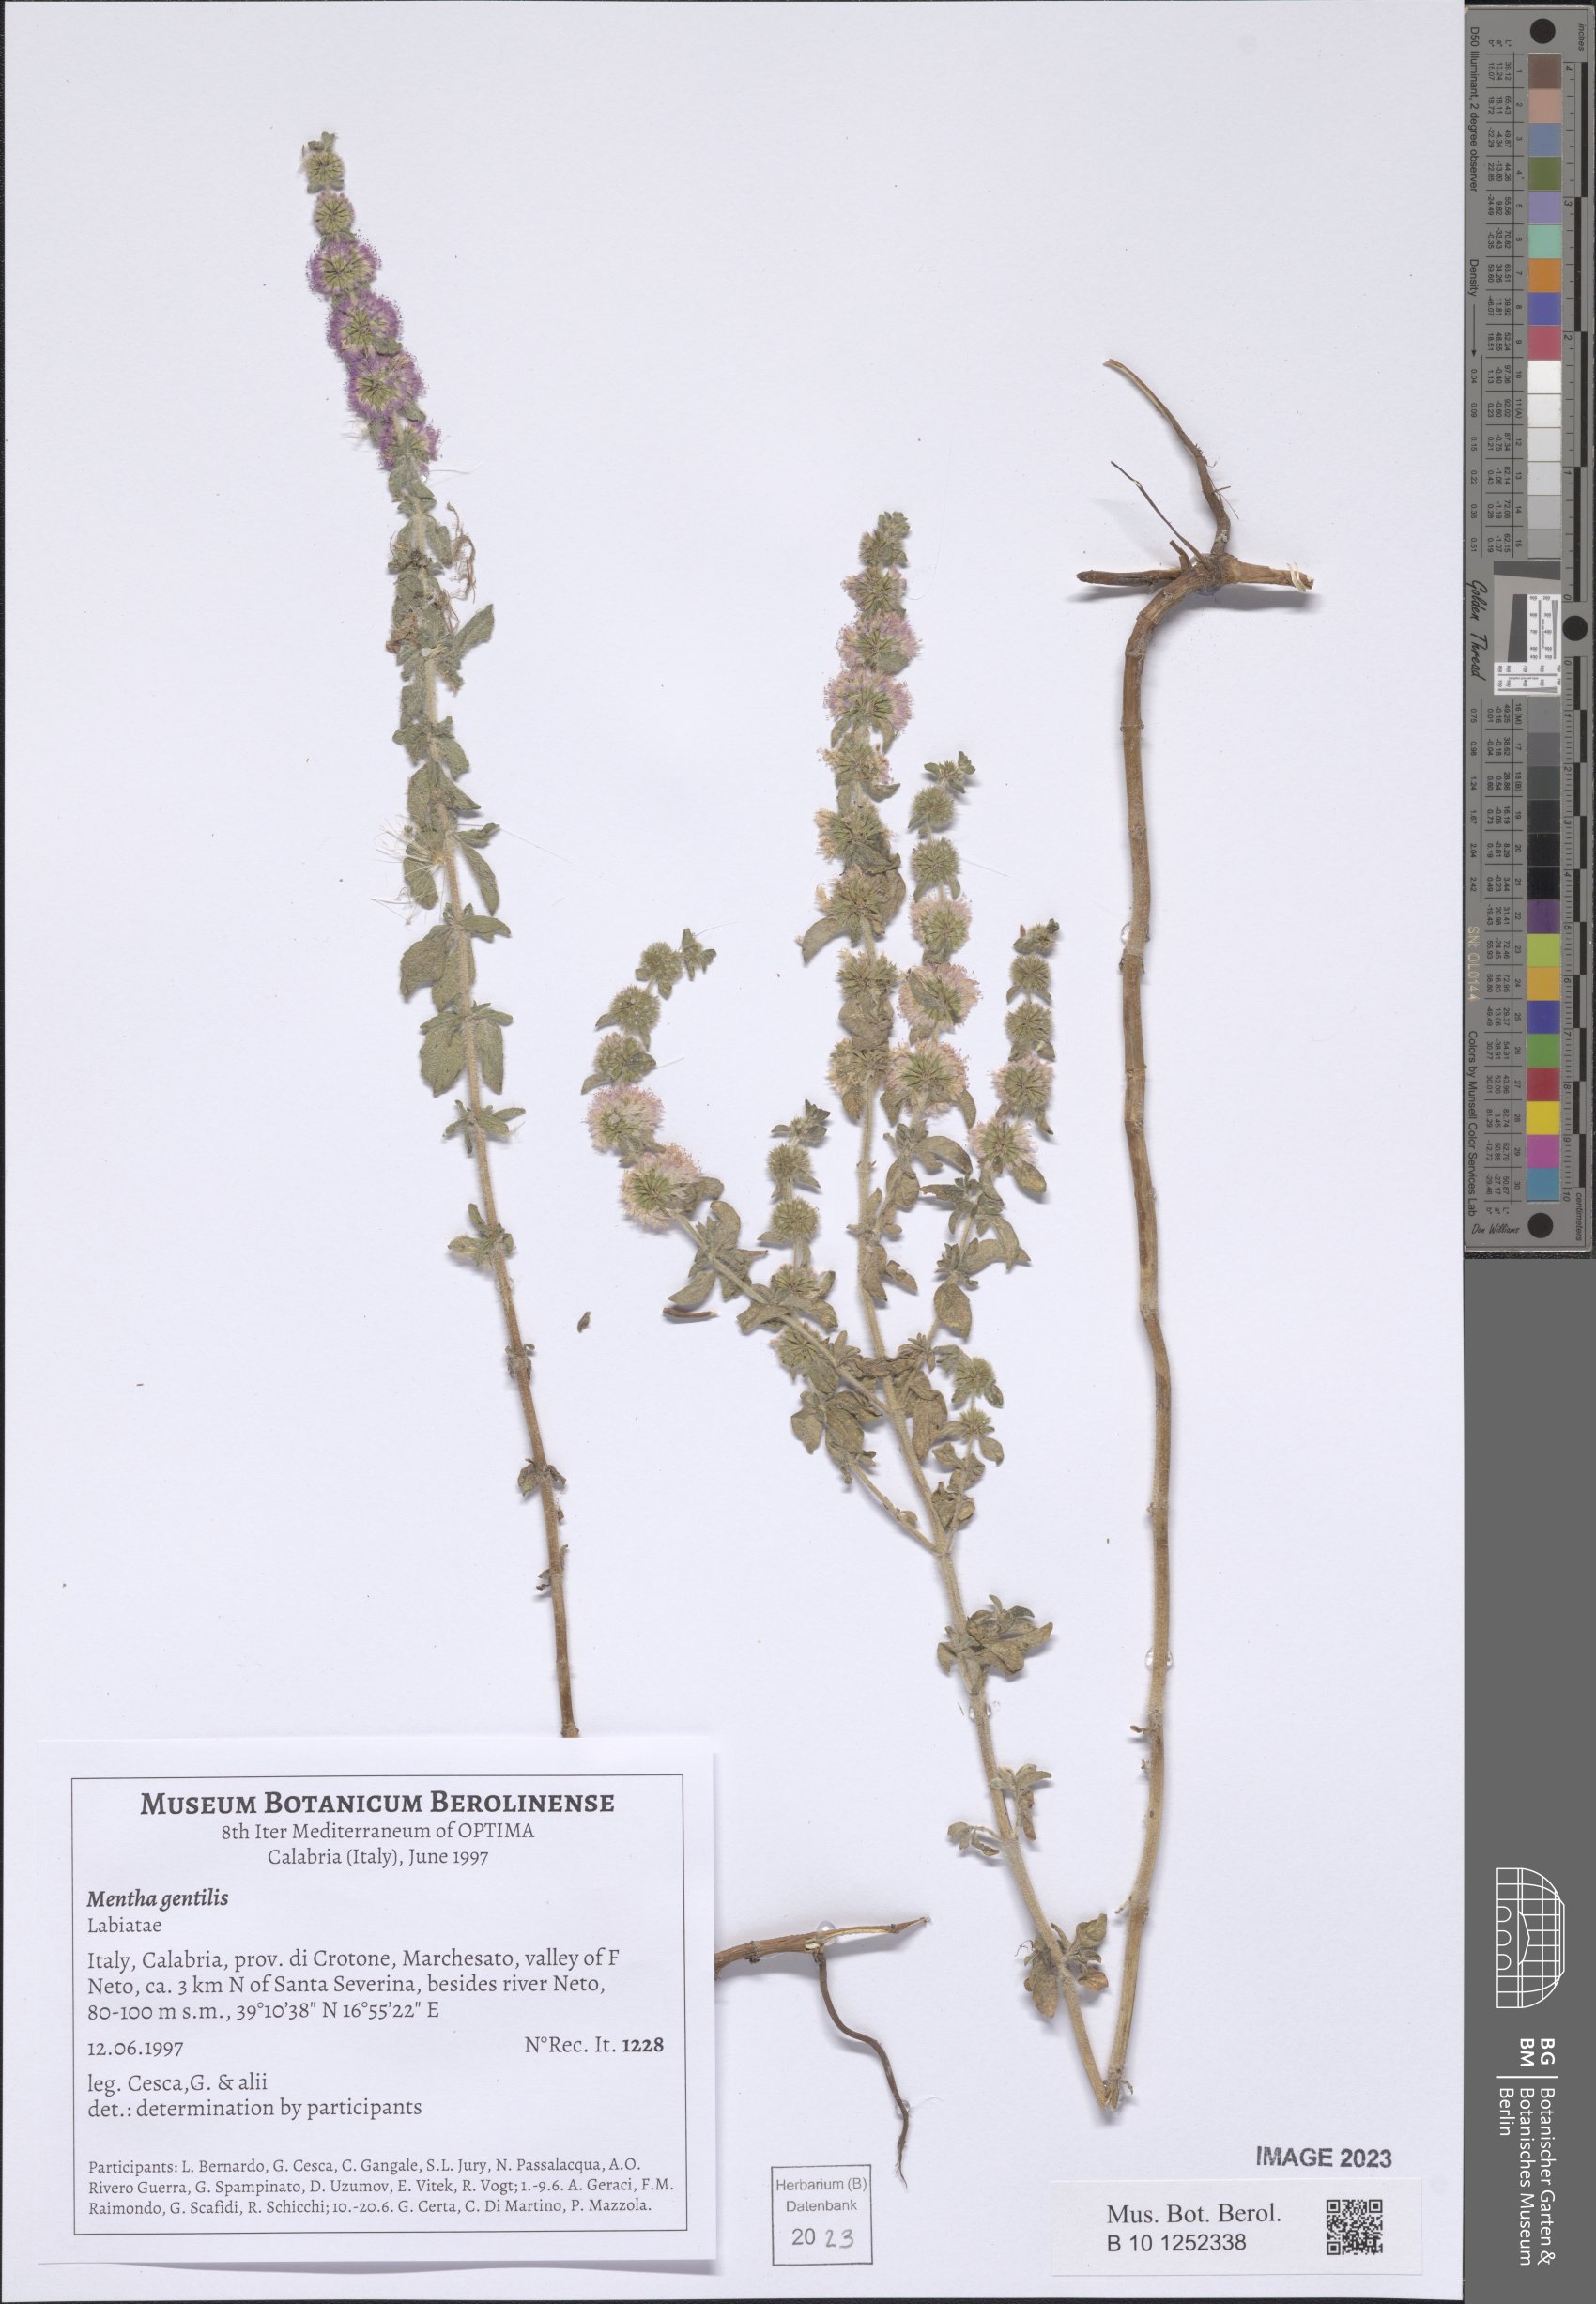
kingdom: Plantae
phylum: Tracheophyta
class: Magnoliopsida
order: Lamiales
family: Lamiaceae
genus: Mentha
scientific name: Mentha arvensis
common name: Corn mint
